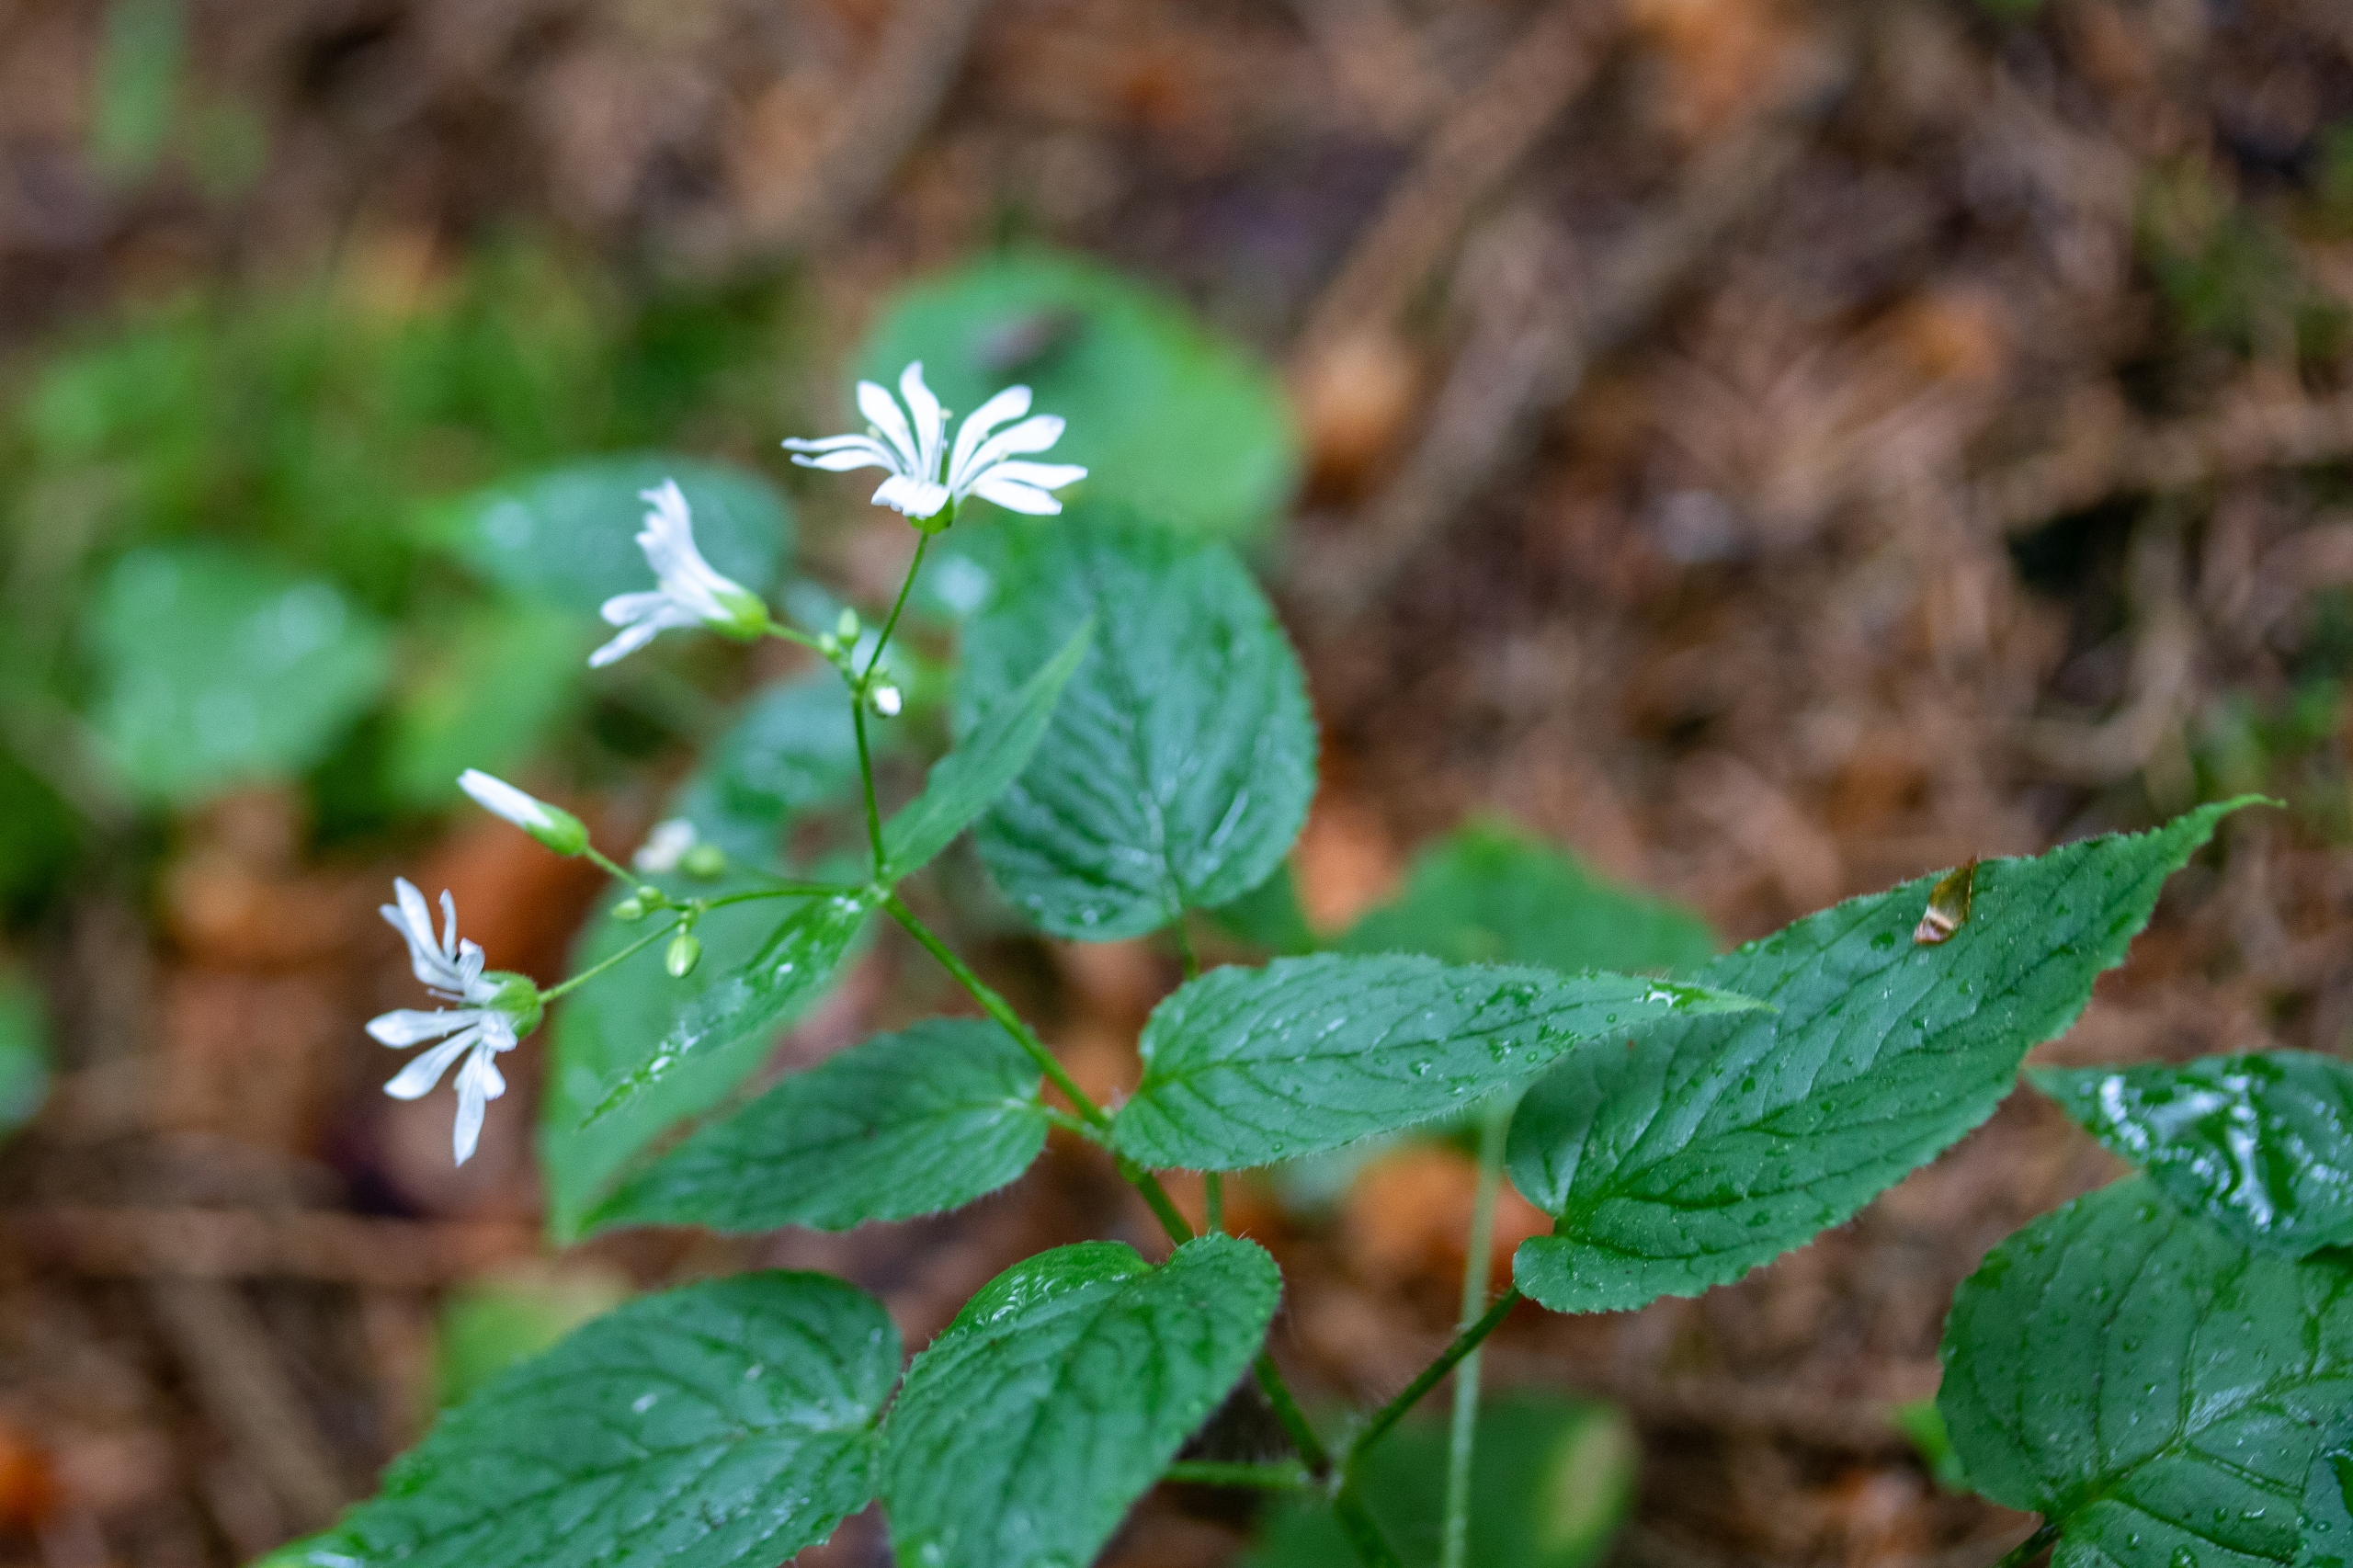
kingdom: Plantae
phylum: Tracheophyta
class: Magnoliopsida
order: Caryophyllales
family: Caryophyllaceae
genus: Stellaria
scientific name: Stellaria glochidisperma
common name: Sydlig lund-fladstjerne
